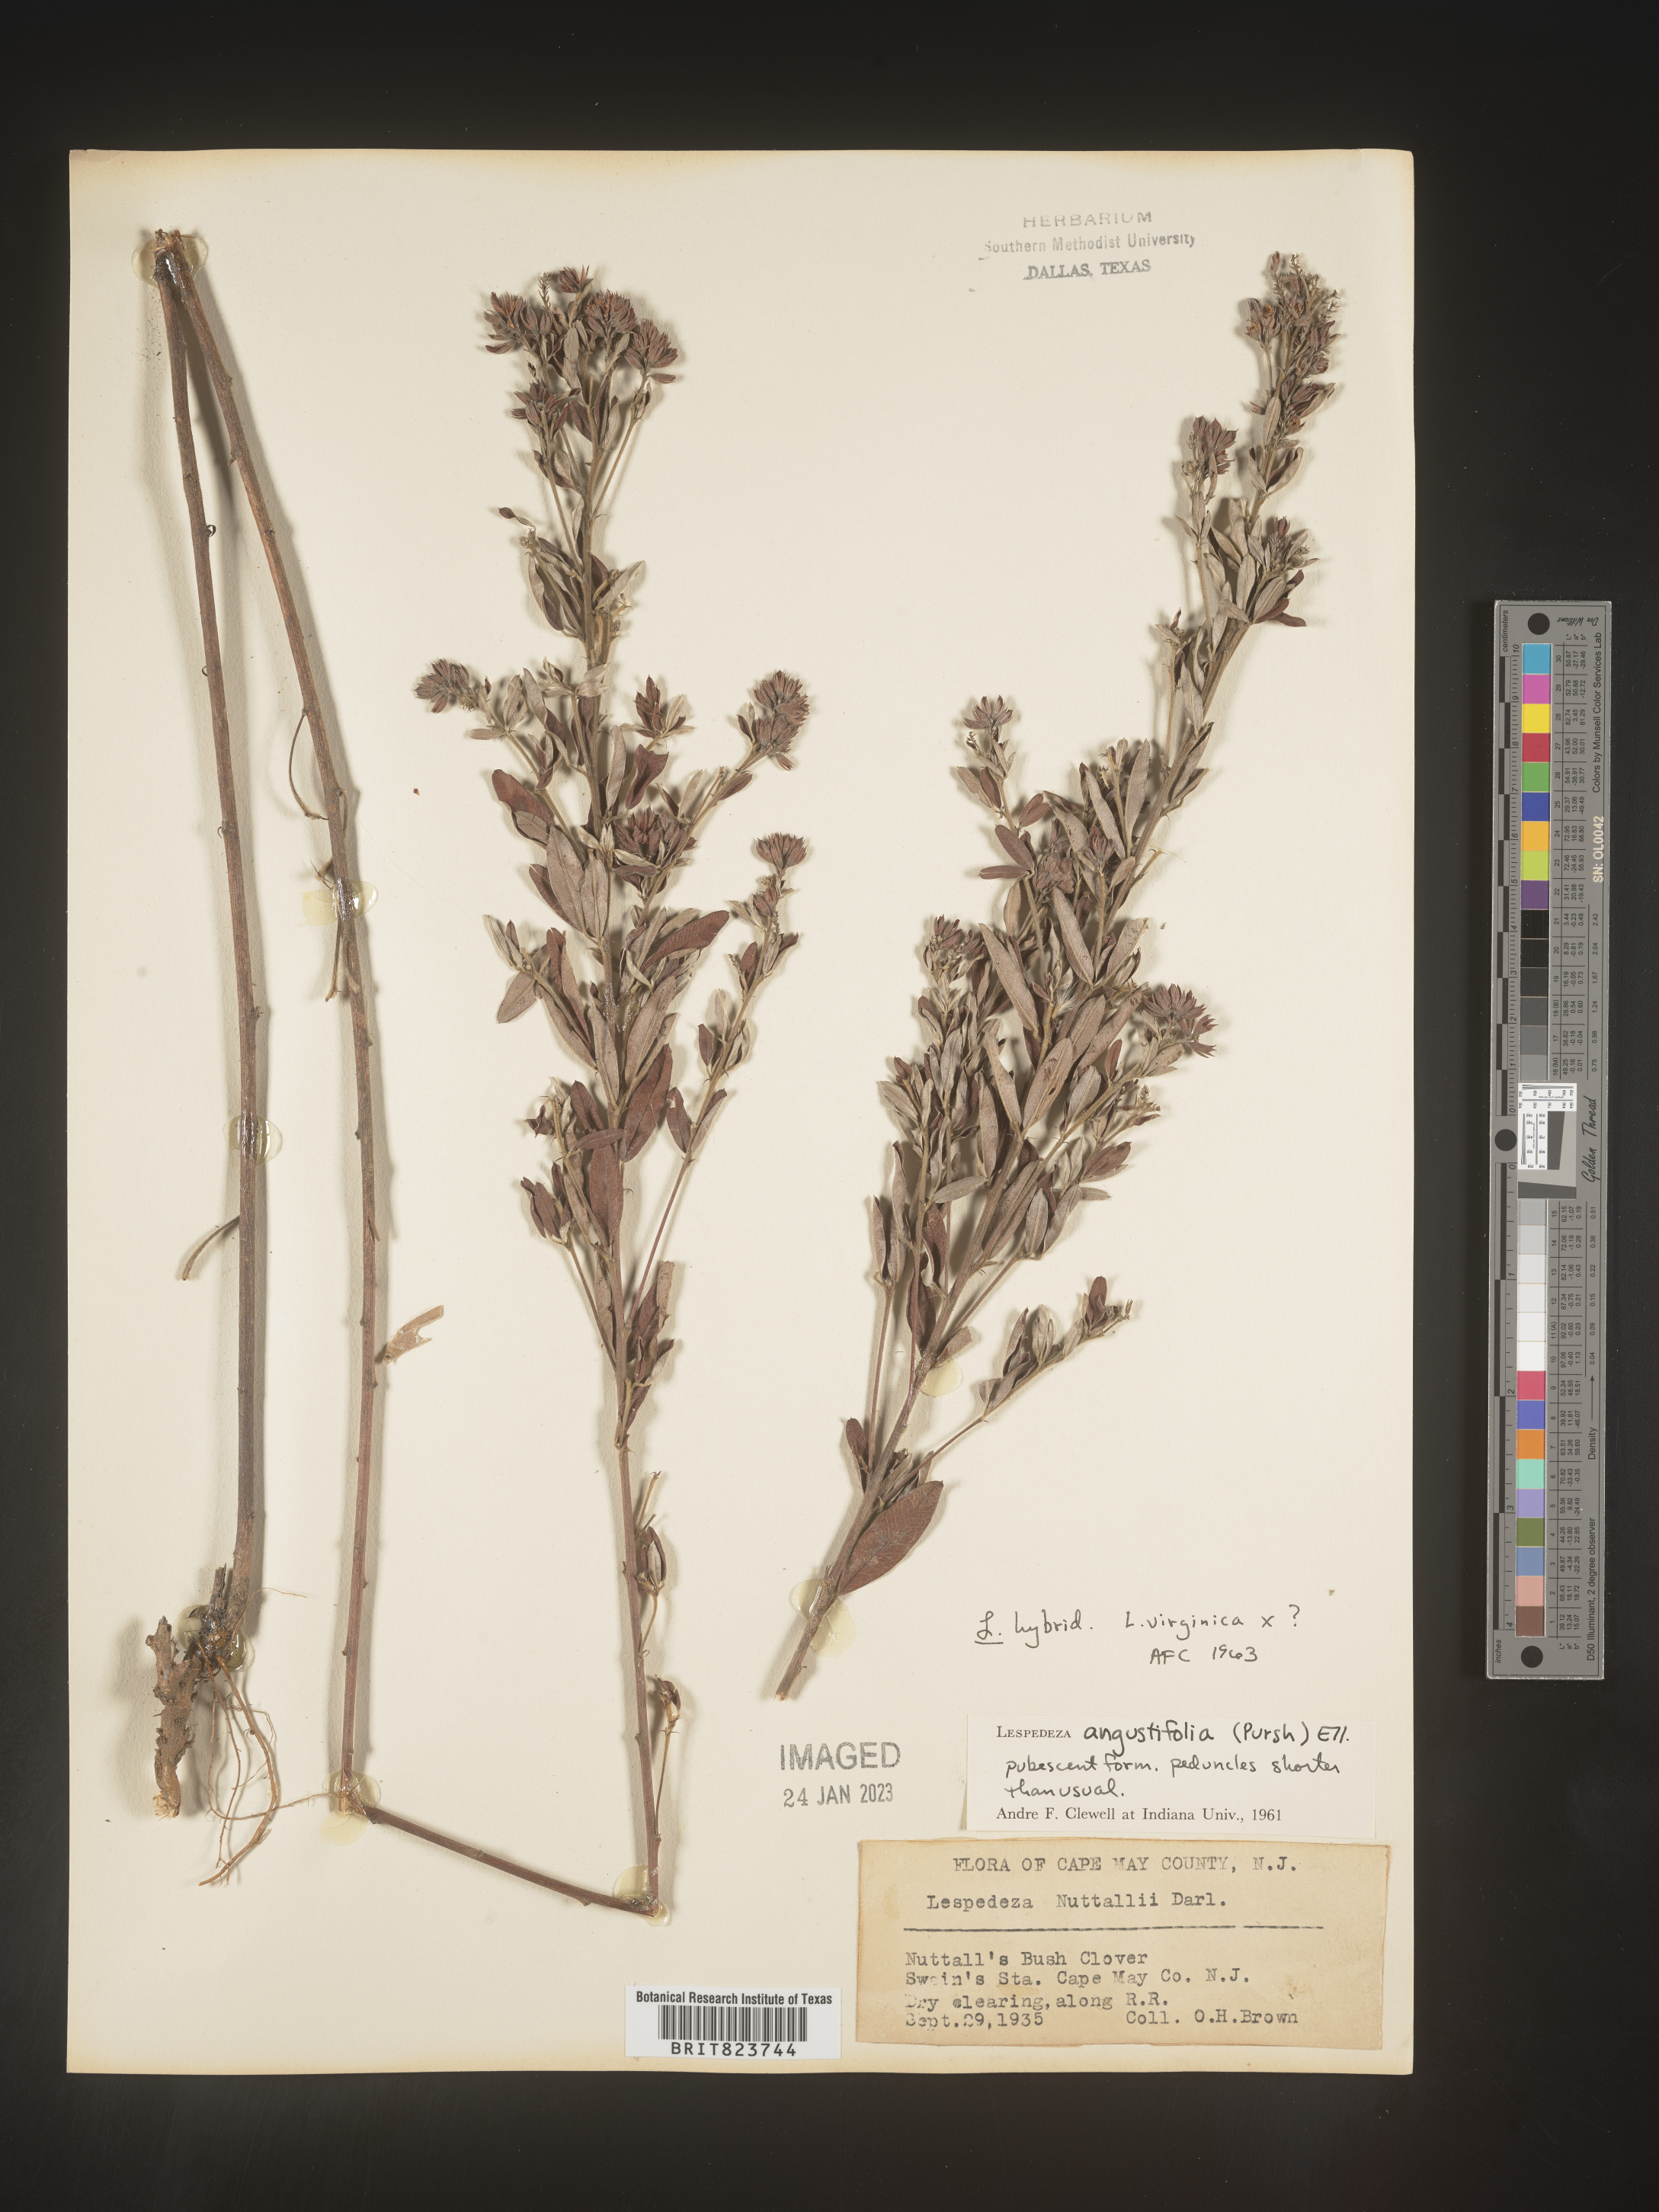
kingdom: Plantae
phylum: Tracheophyta
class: Magnoliopsida
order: Fabales
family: Fabaceae
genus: Lespedeza
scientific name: Lespedeza virginica
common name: Slender bush-clover
